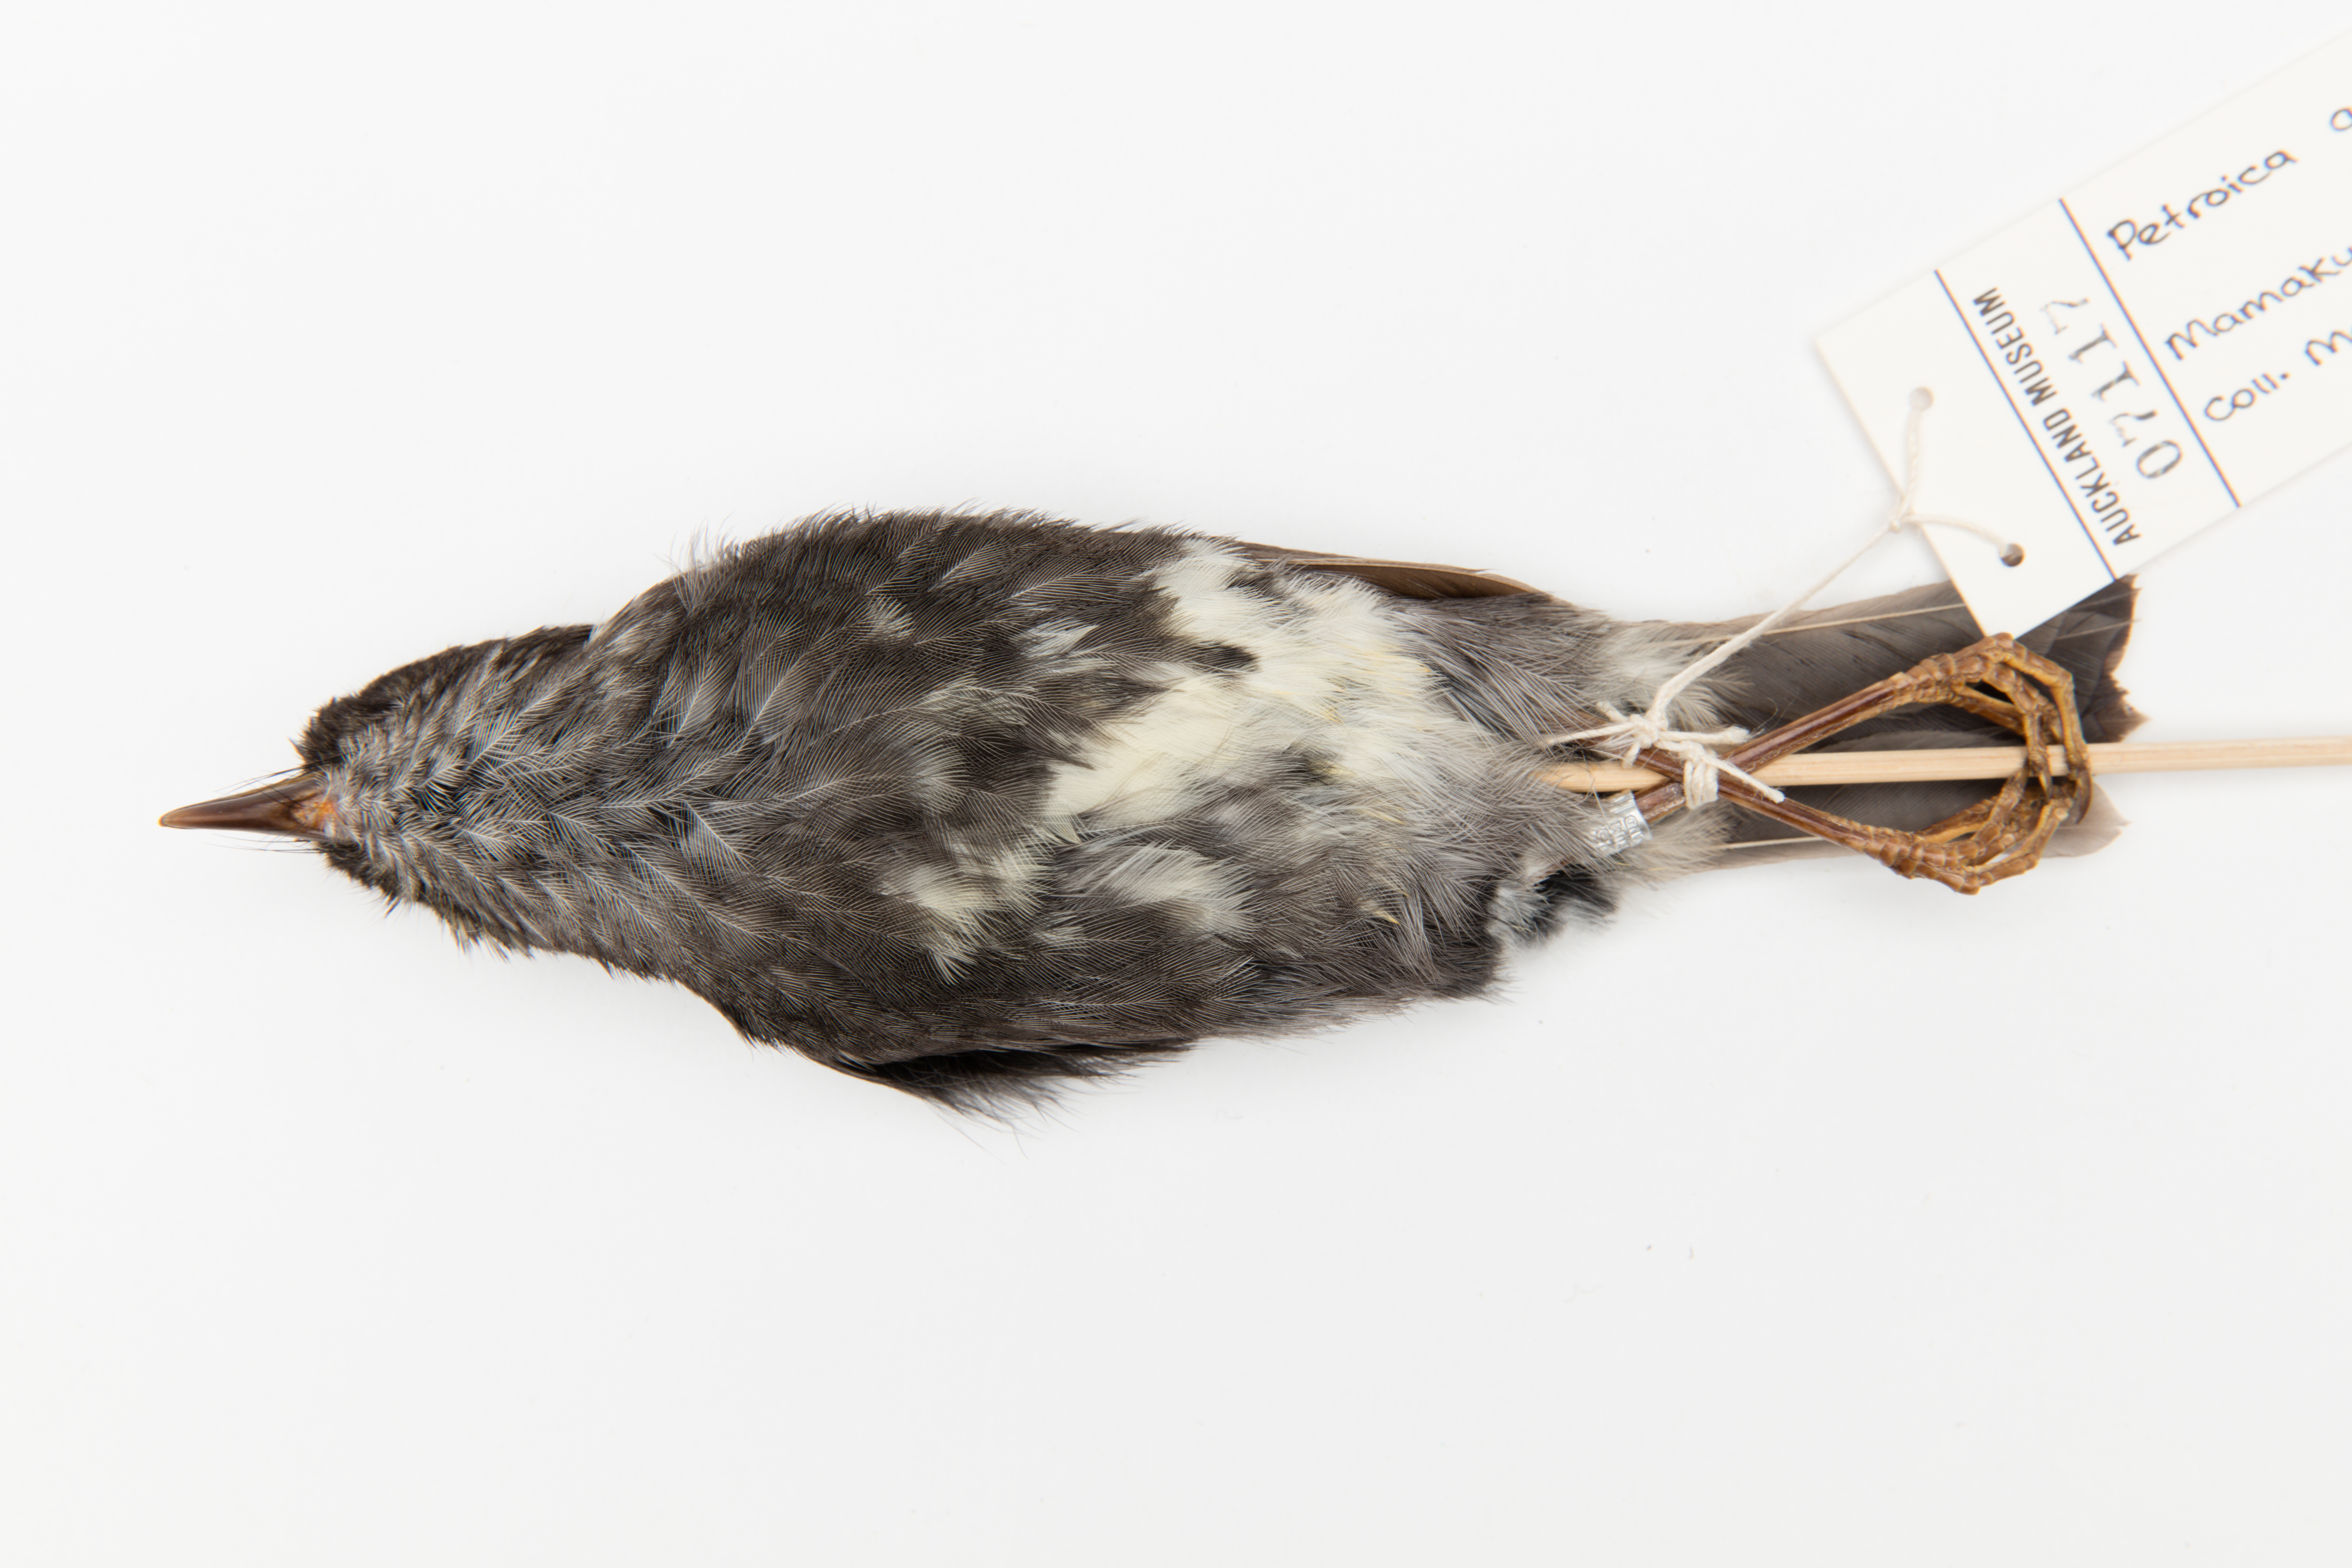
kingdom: Animalia
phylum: Chordata
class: Aves
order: Passeriformes
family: Petroicidae
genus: Petroica
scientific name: Petroica australis
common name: New zealand robin
